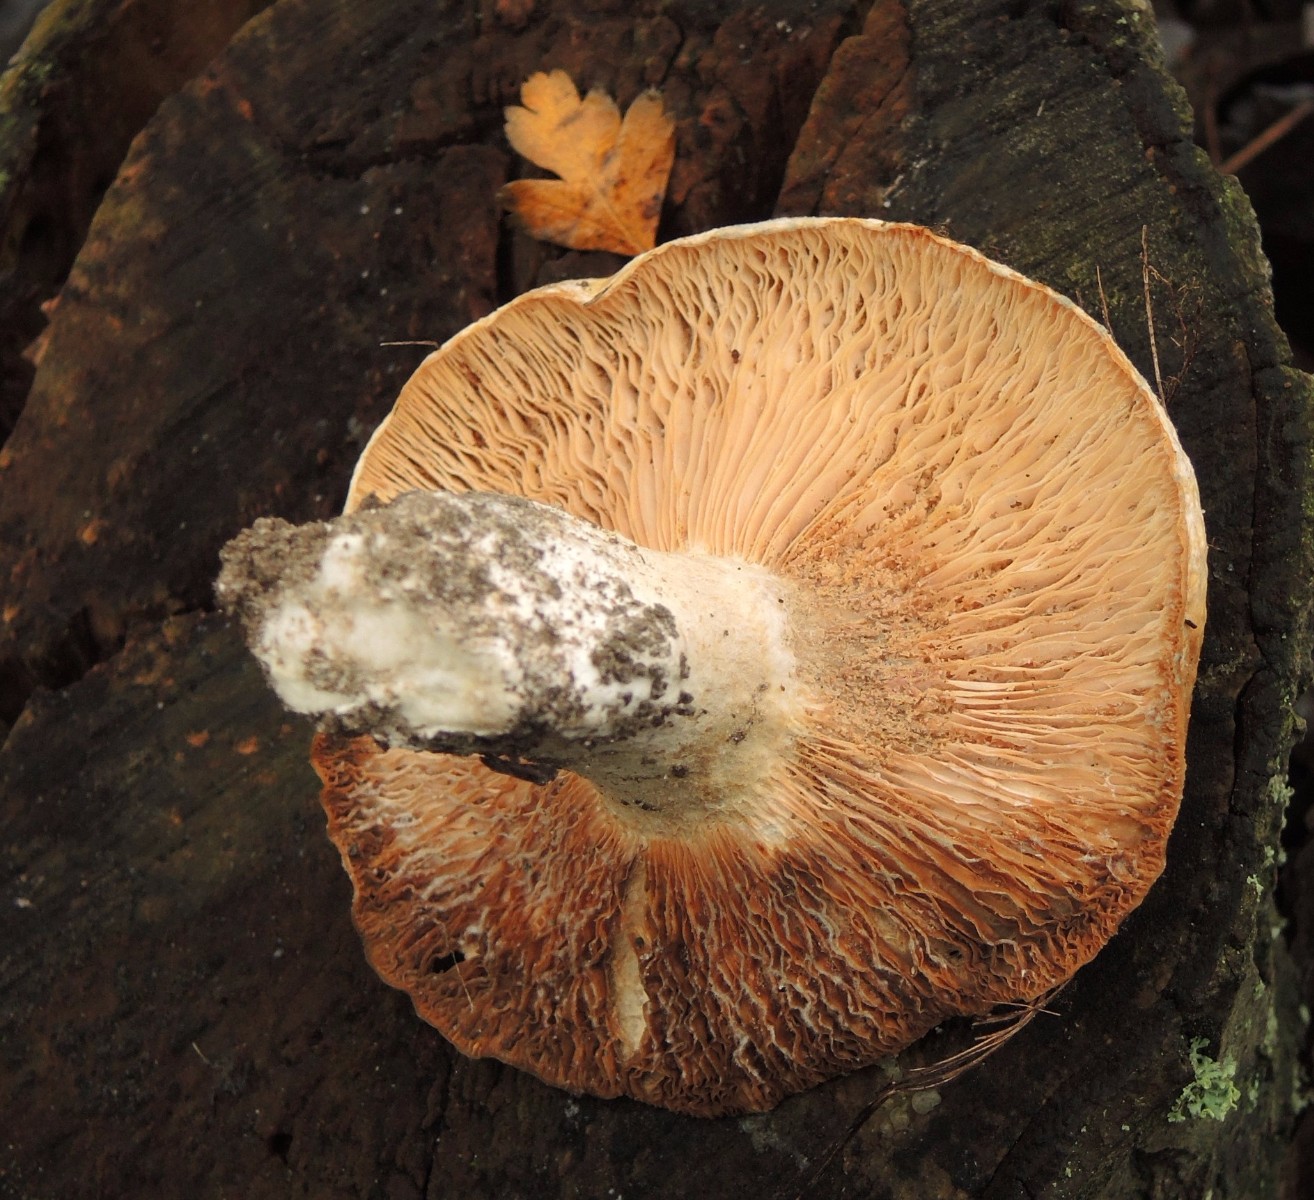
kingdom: Fungi
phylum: Basidiomycota
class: Agaricomycetes
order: Russulales
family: Russulaceae
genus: Lactarius
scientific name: Lactarius controversus
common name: rosabladet mælkehat
